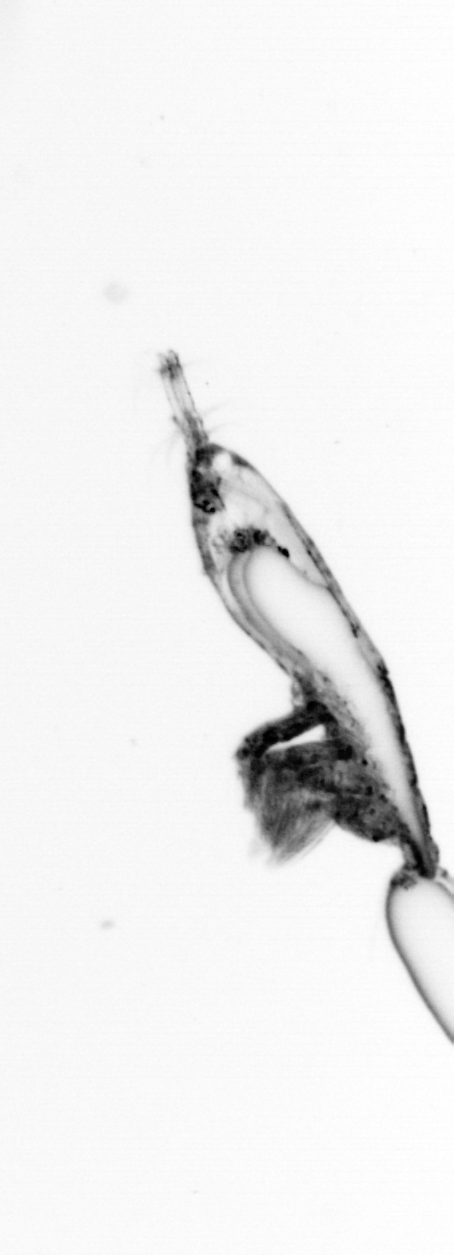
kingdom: Animalia
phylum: Arthropoda
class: Copepoda
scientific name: Copepoda
